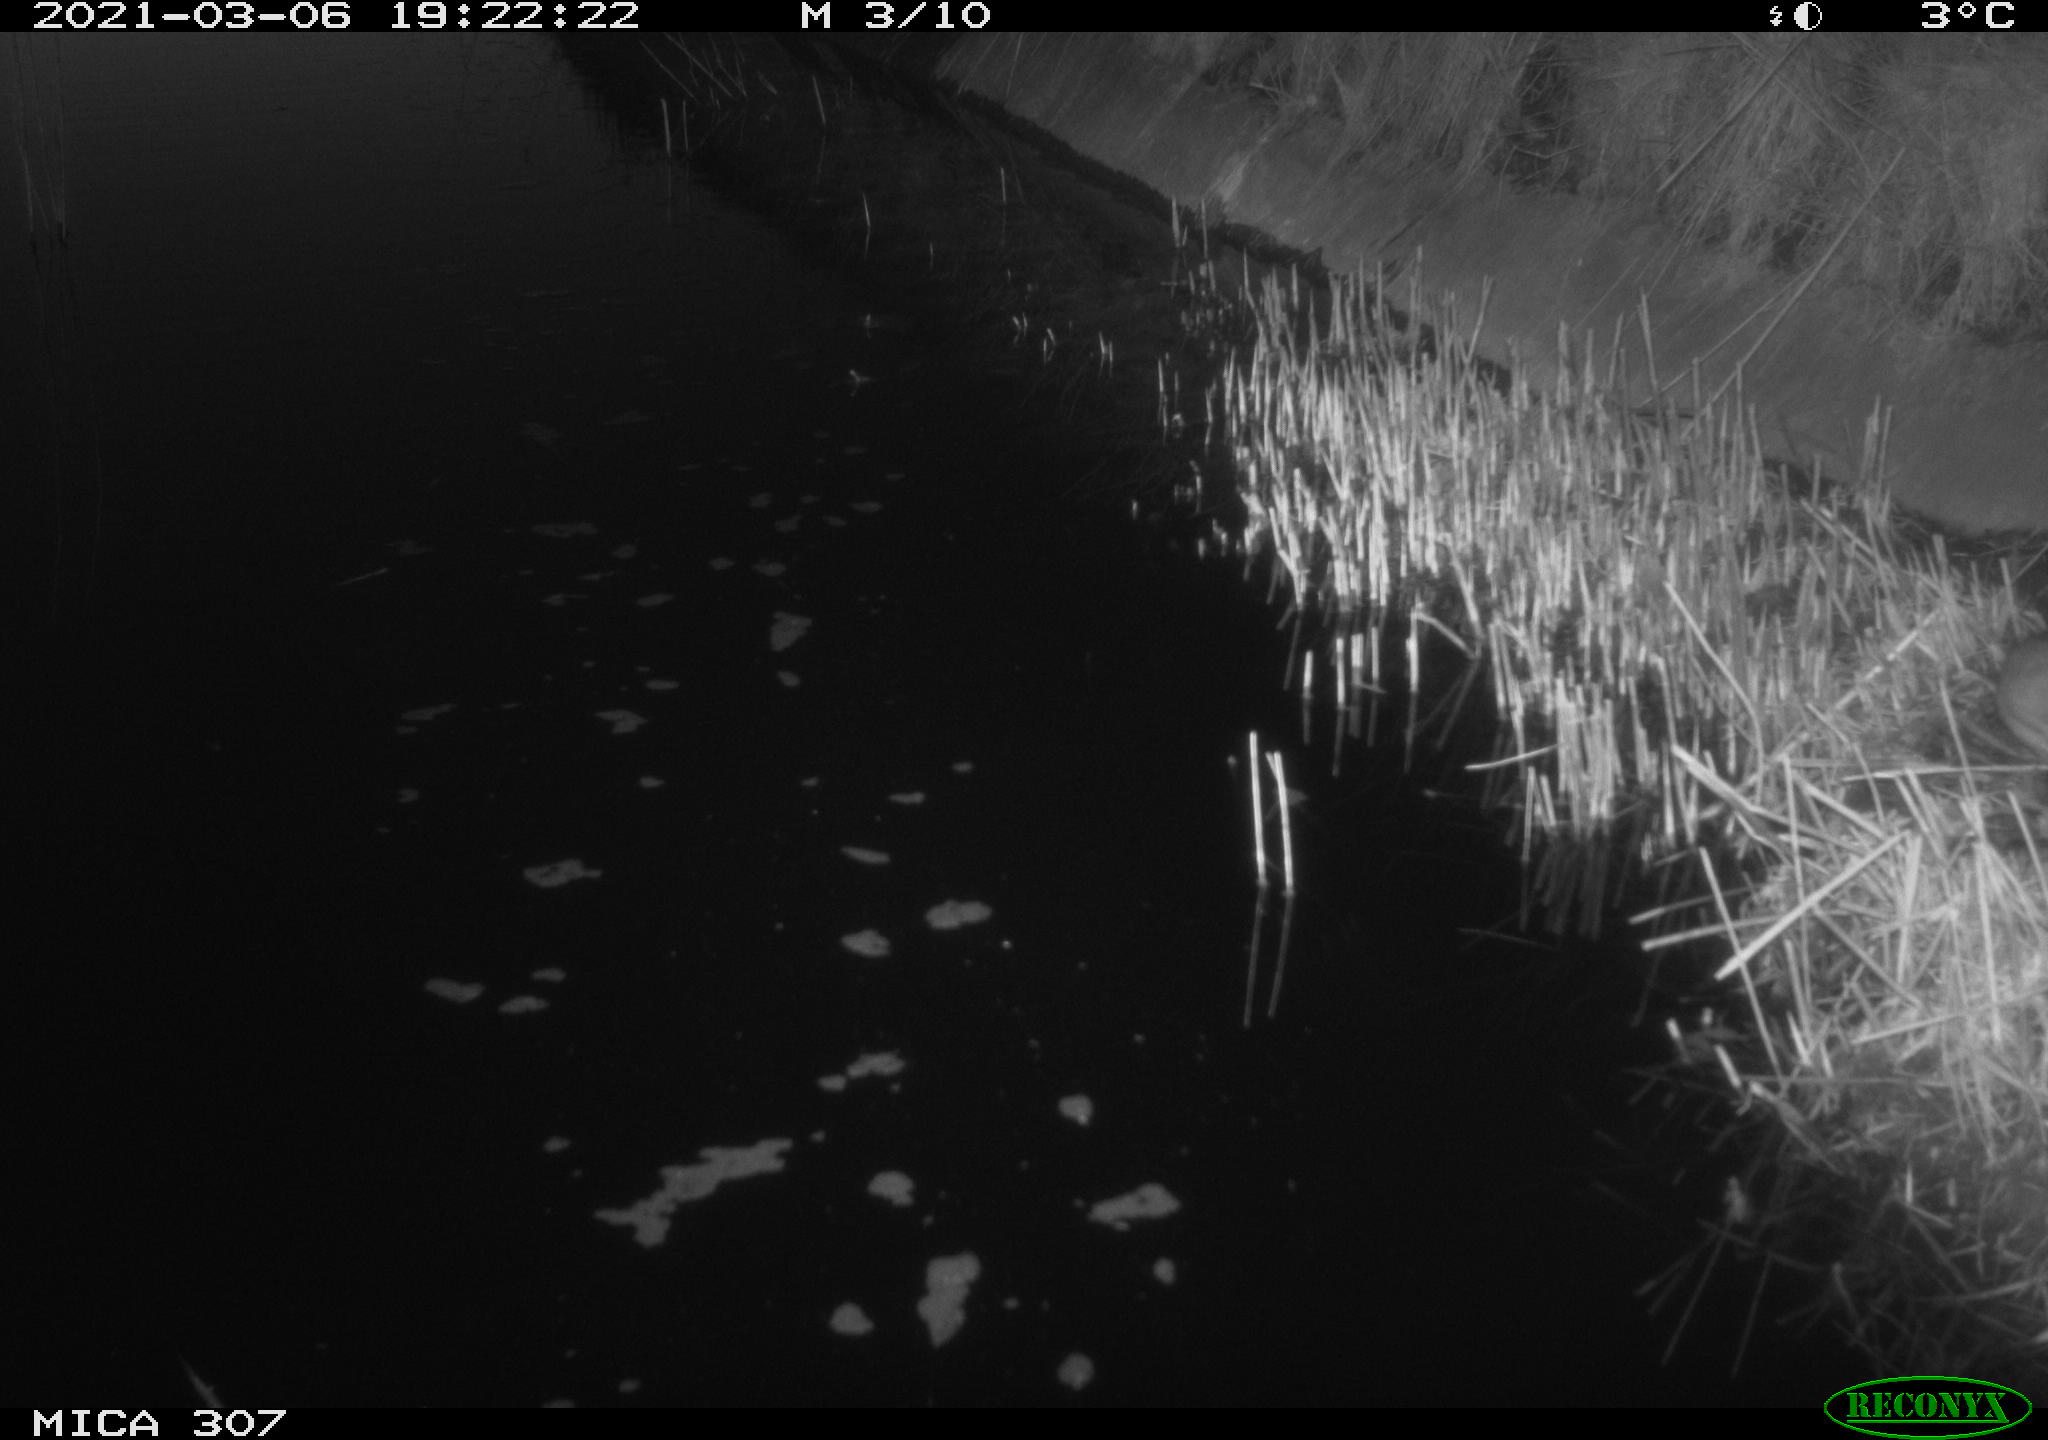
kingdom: Animalia
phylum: Chordata
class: Mammalia
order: Rodentia
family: Muridae
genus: Rattus
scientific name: Rattus norvegicus
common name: Brown rat
